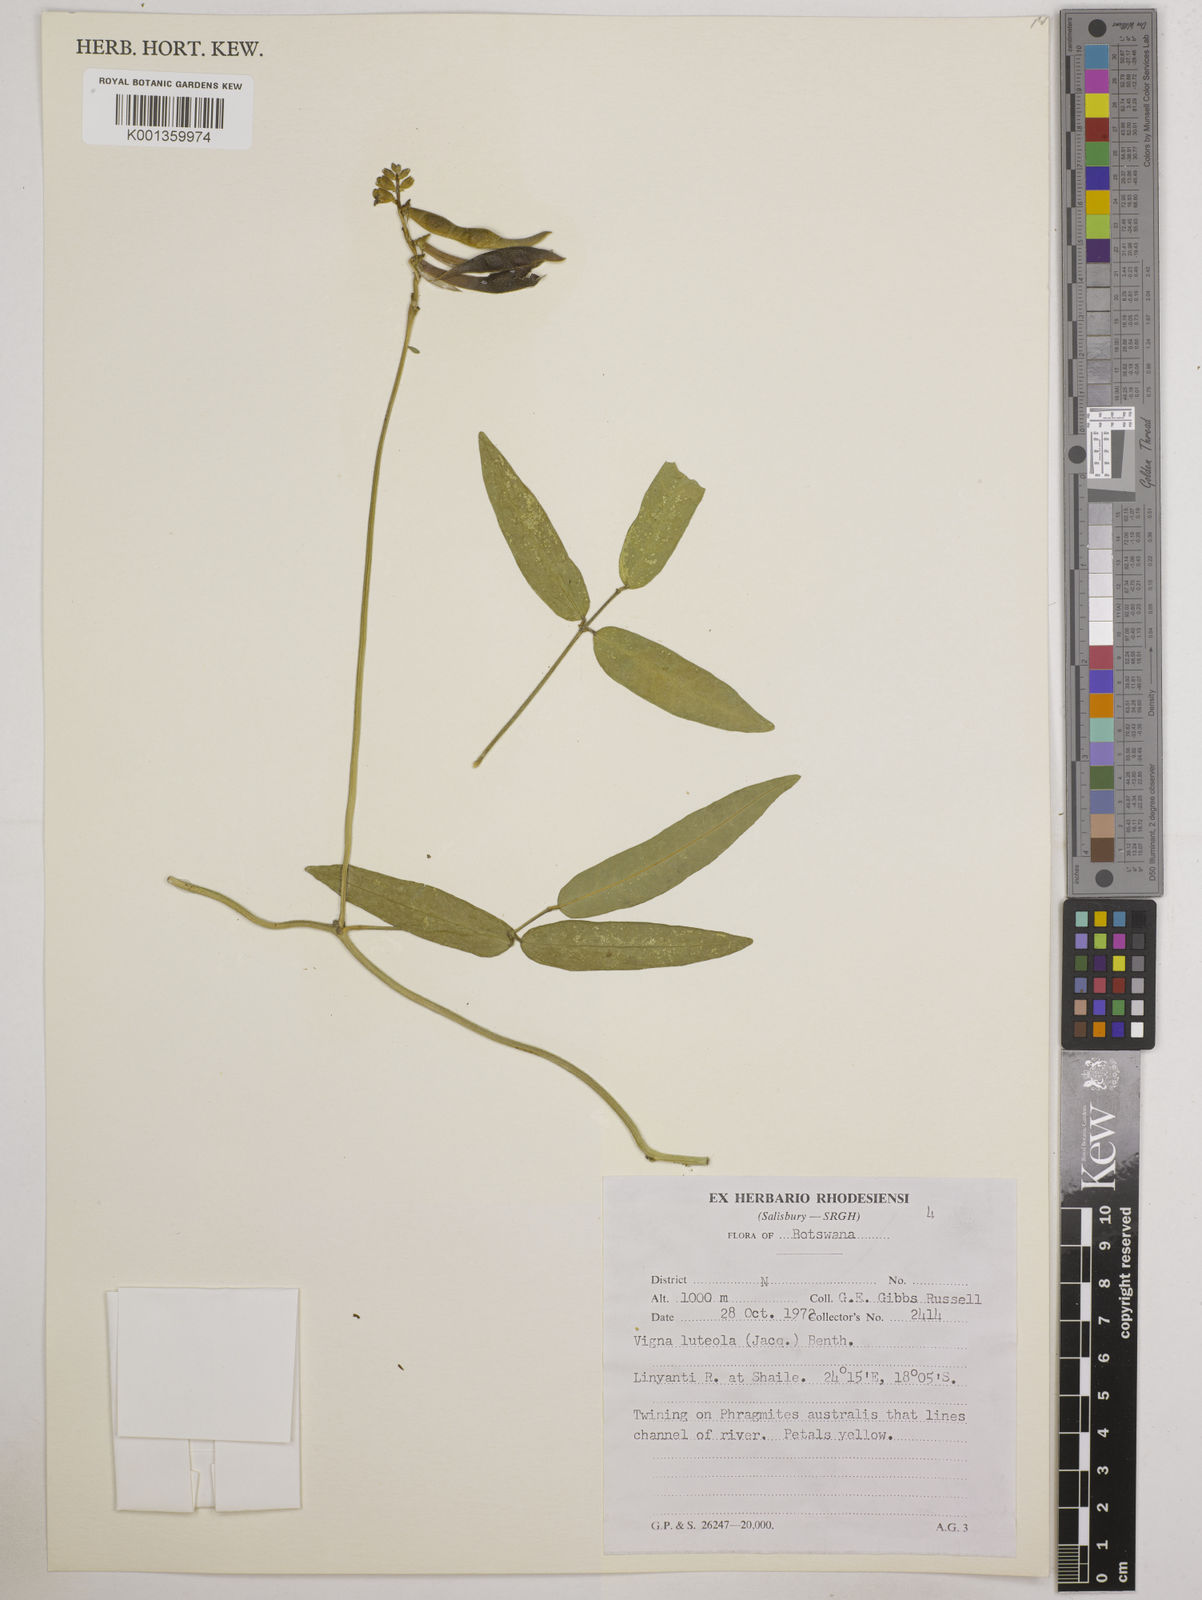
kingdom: Plantae
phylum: Tracheophyta
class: Magnoliopsida
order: Fabales
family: Fabaceae
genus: Vigna
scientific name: Vigna luteola
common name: Hairypod cowpea
